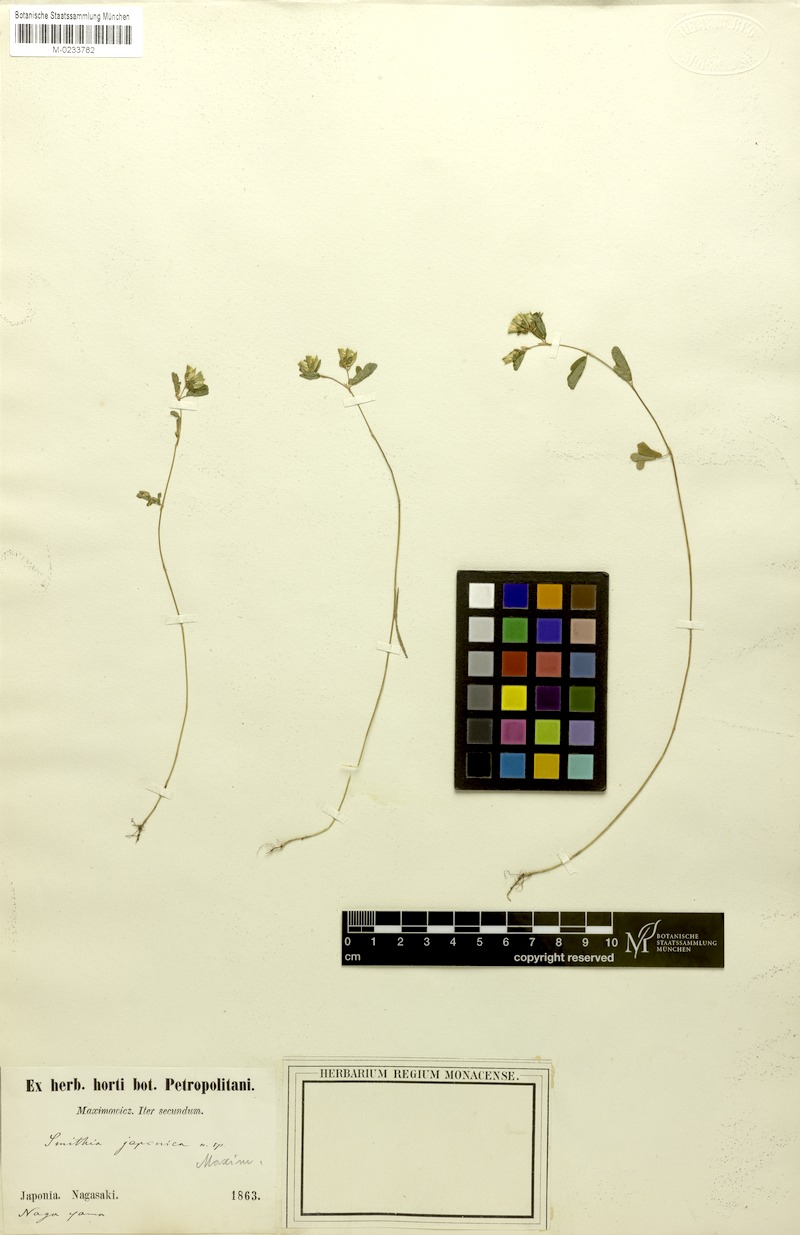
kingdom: Plantae
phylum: Tracheophyta
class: Magnoliopsida
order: Fabales
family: Fabaceae
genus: Smithia
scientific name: Smithia ciliata
